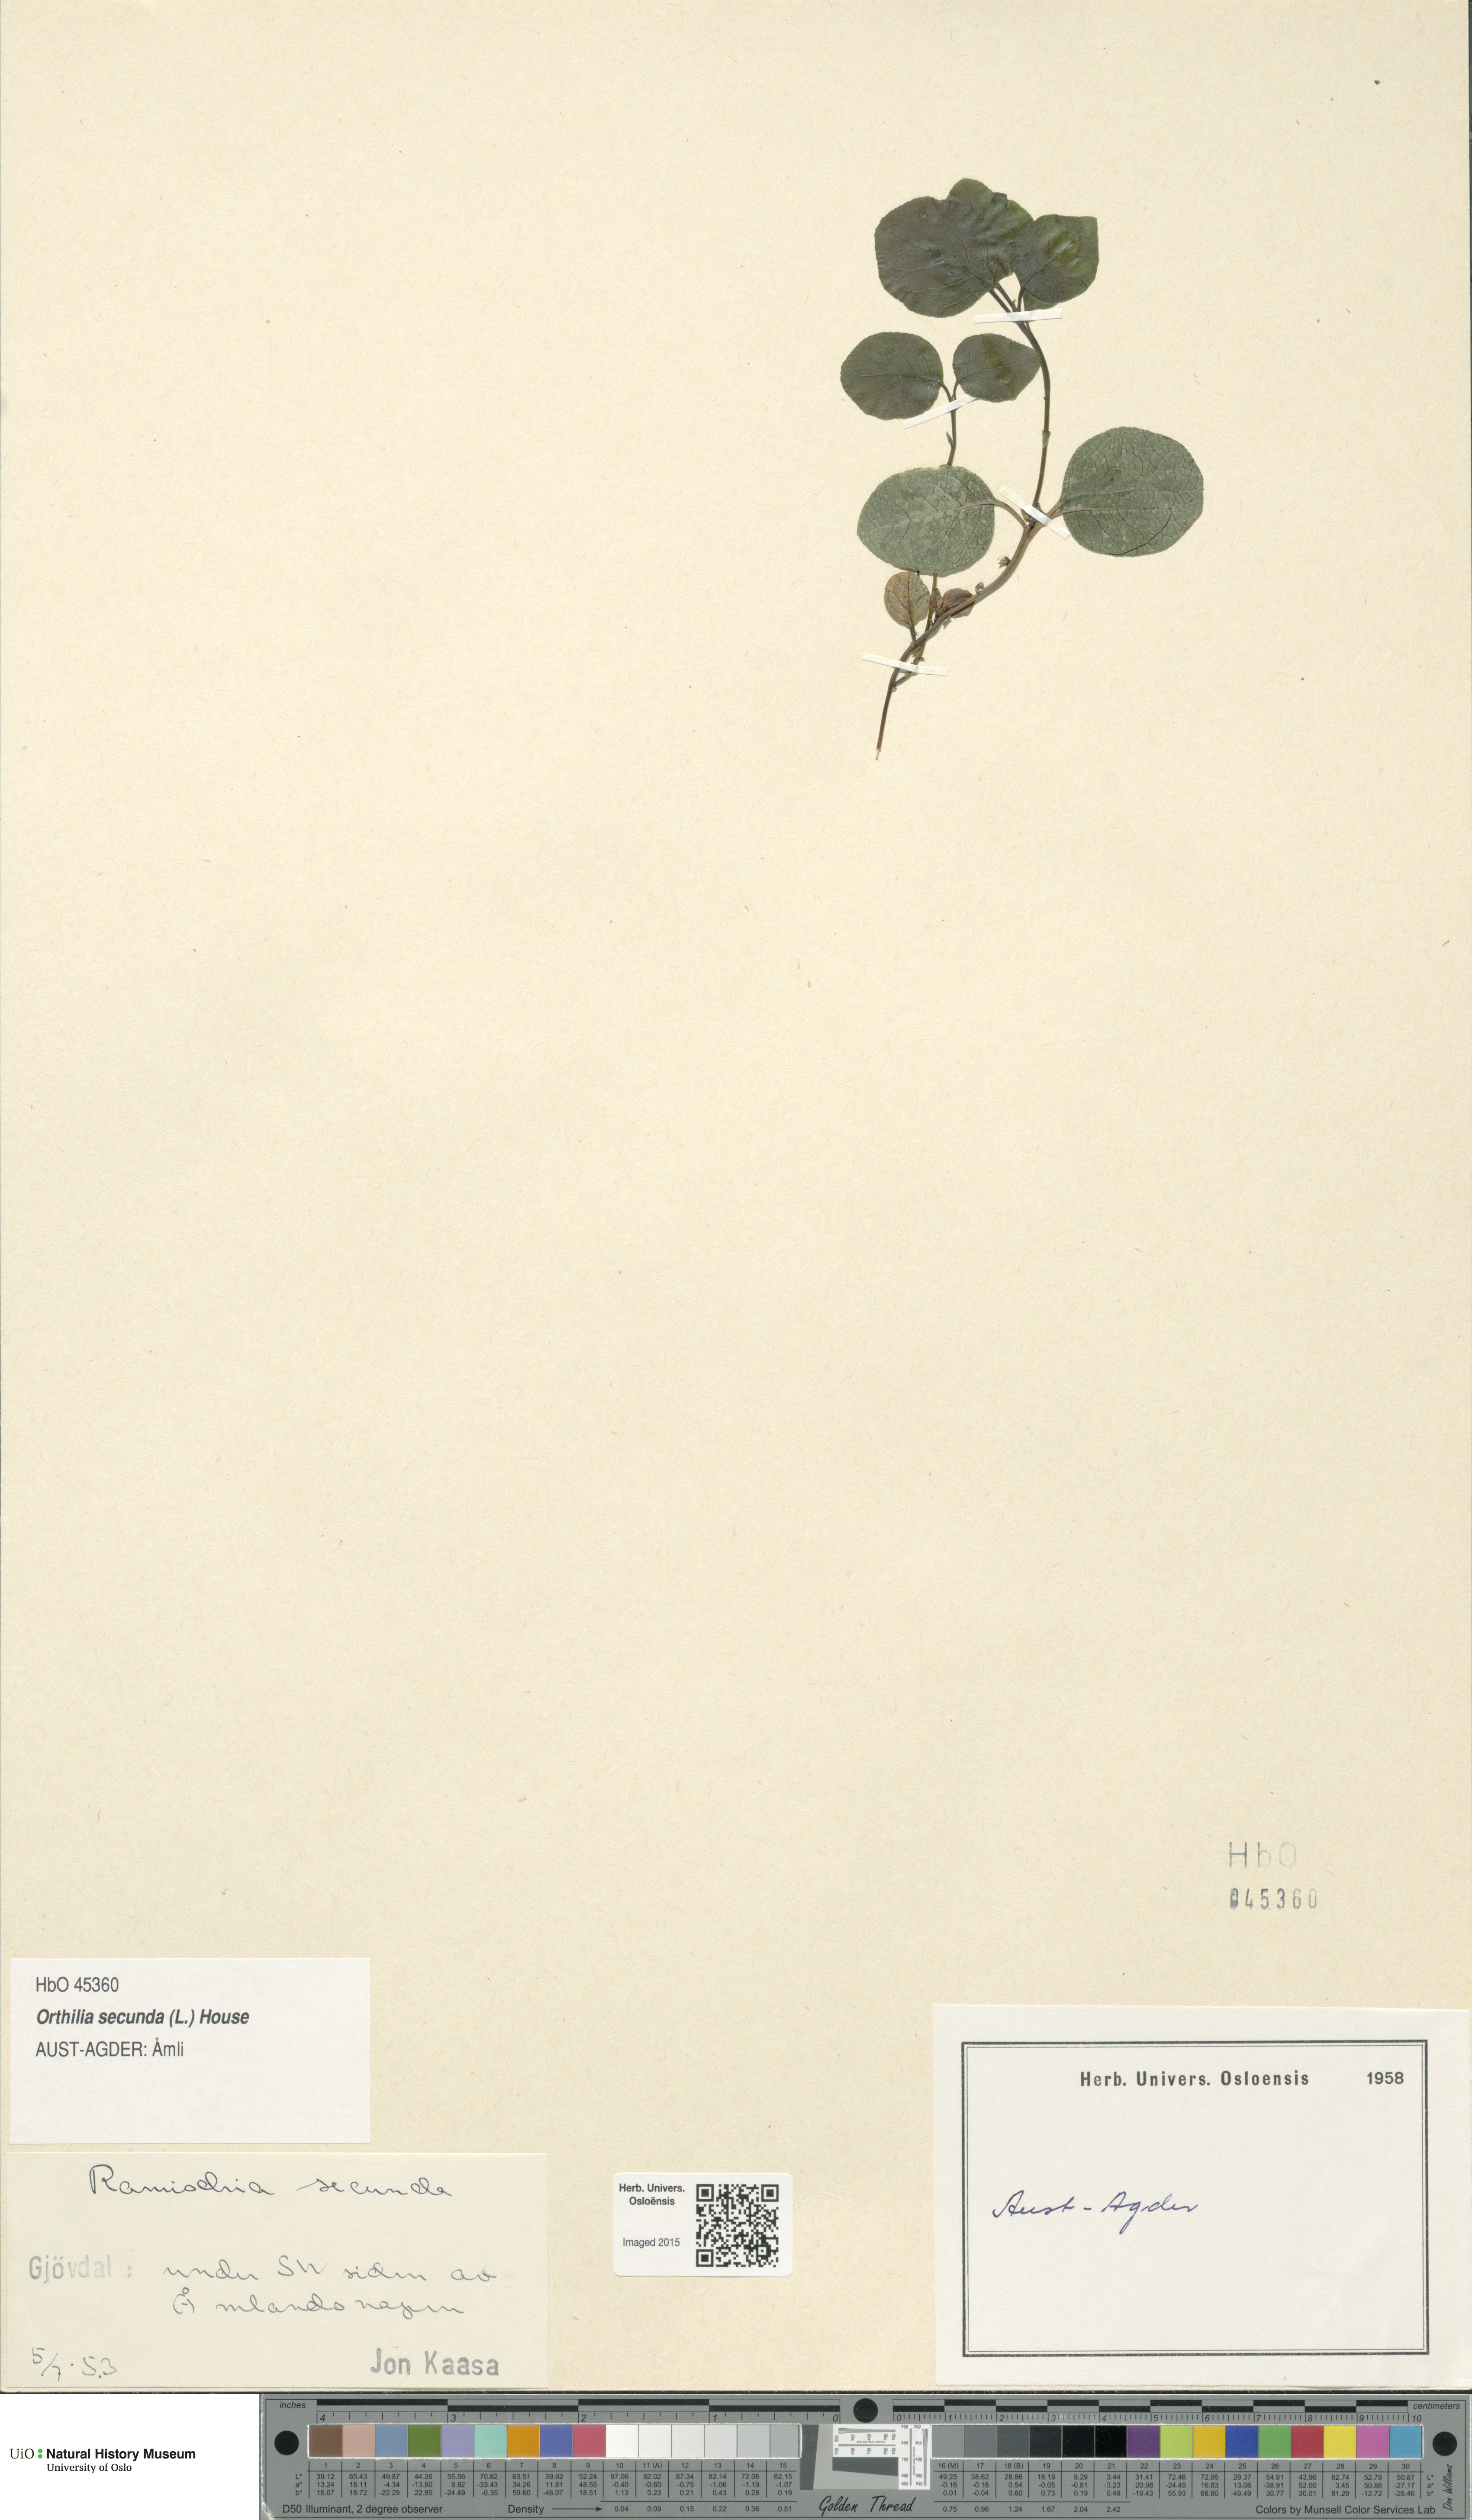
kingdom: Plantae
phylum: Tracheophyta
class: Magnoliopsida
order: Ericales
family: Ericaceae
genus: Orthilia
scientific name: Orthilia secunda
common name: One-sided orthilia
